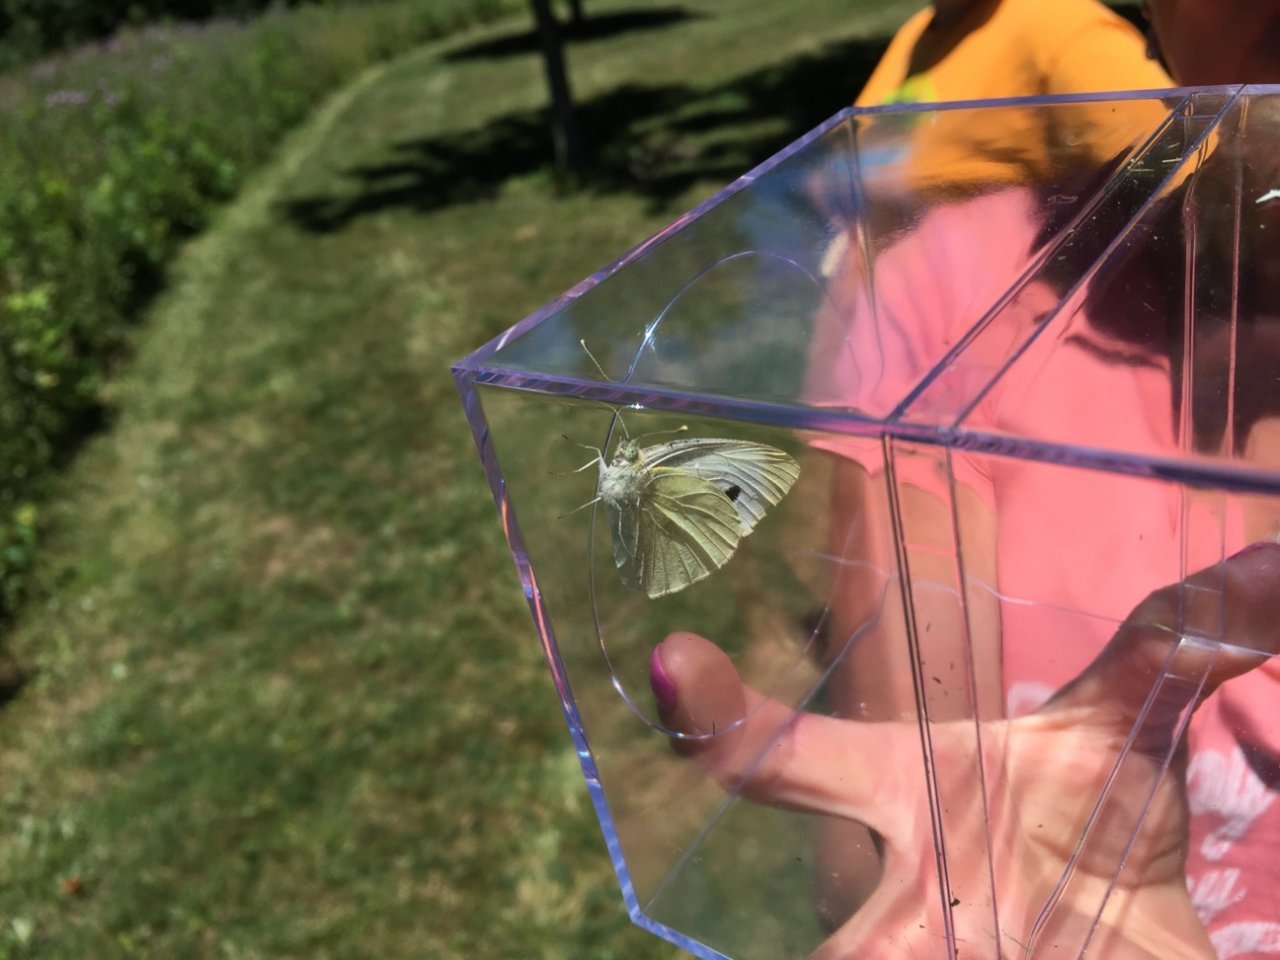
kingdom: Animalia
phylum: Arthropoda
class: Insecta
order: Lepidoptera
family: Pieridae
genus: Pieris
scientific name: Pieris rapae
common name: Cabbage White
